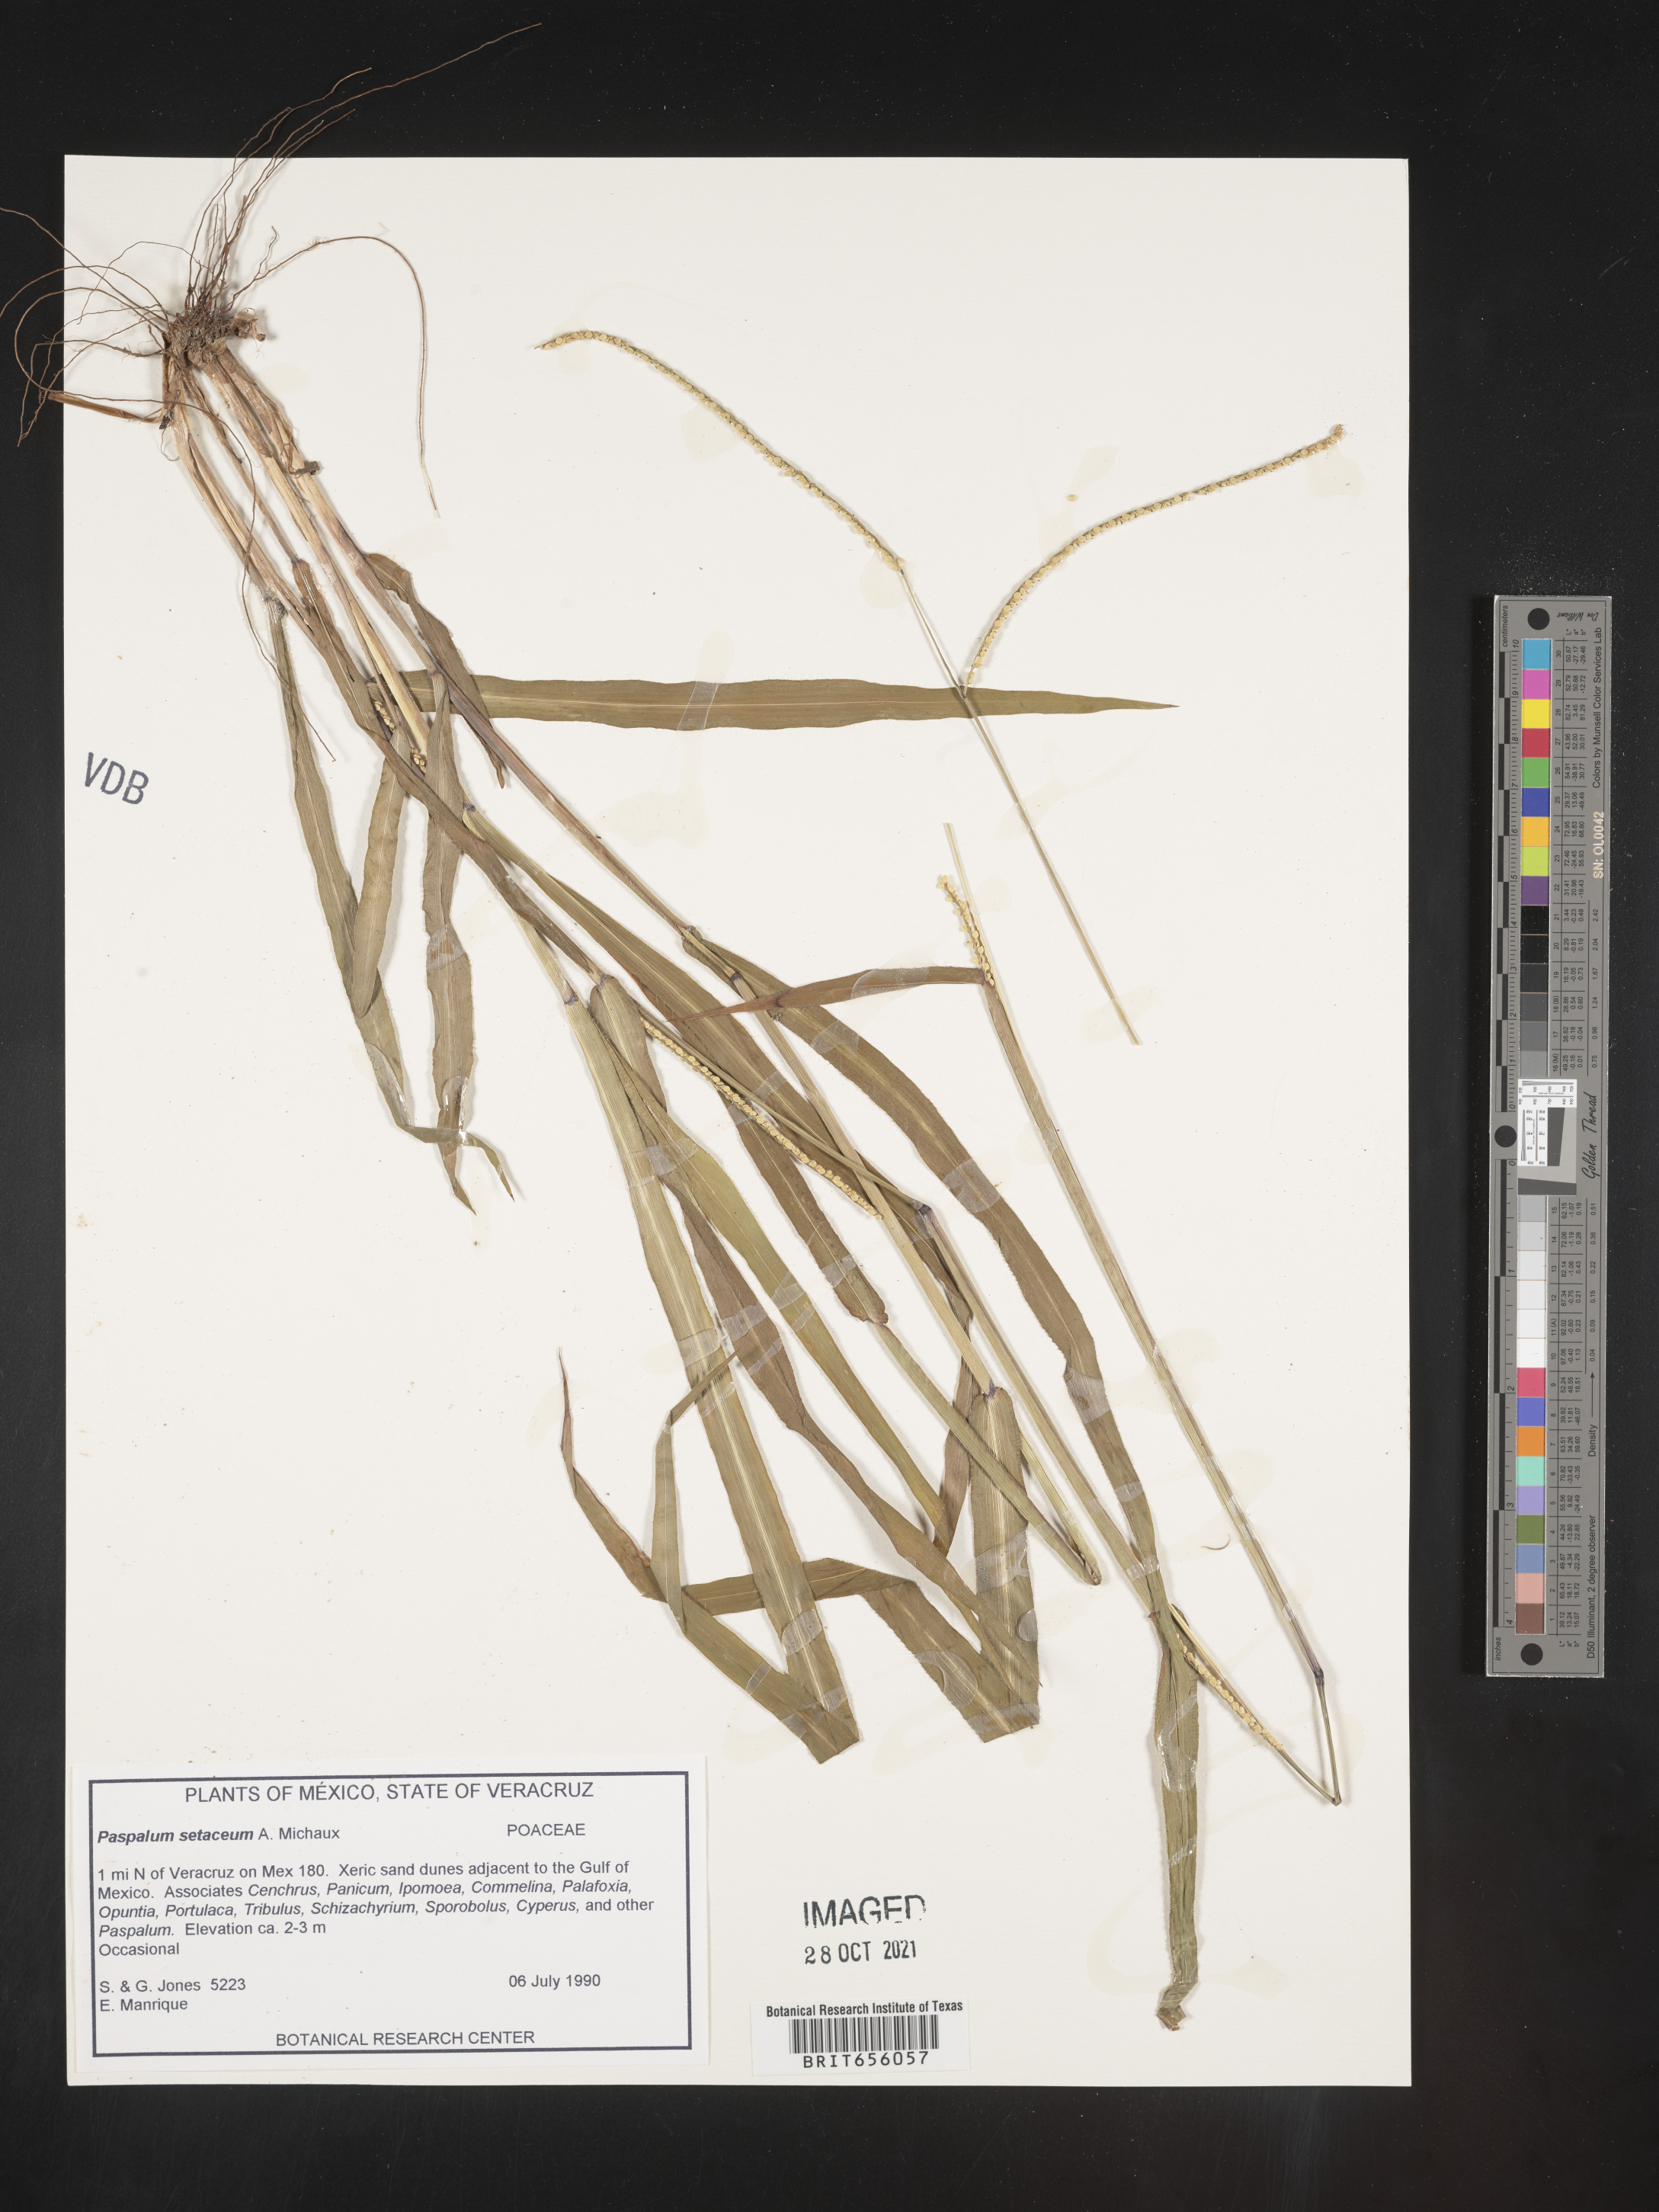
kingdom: Plantae
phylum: Tracheophyta
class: Liliopsida
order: Poales
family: Poaceae
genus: Paspalum
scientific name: Paspalum
